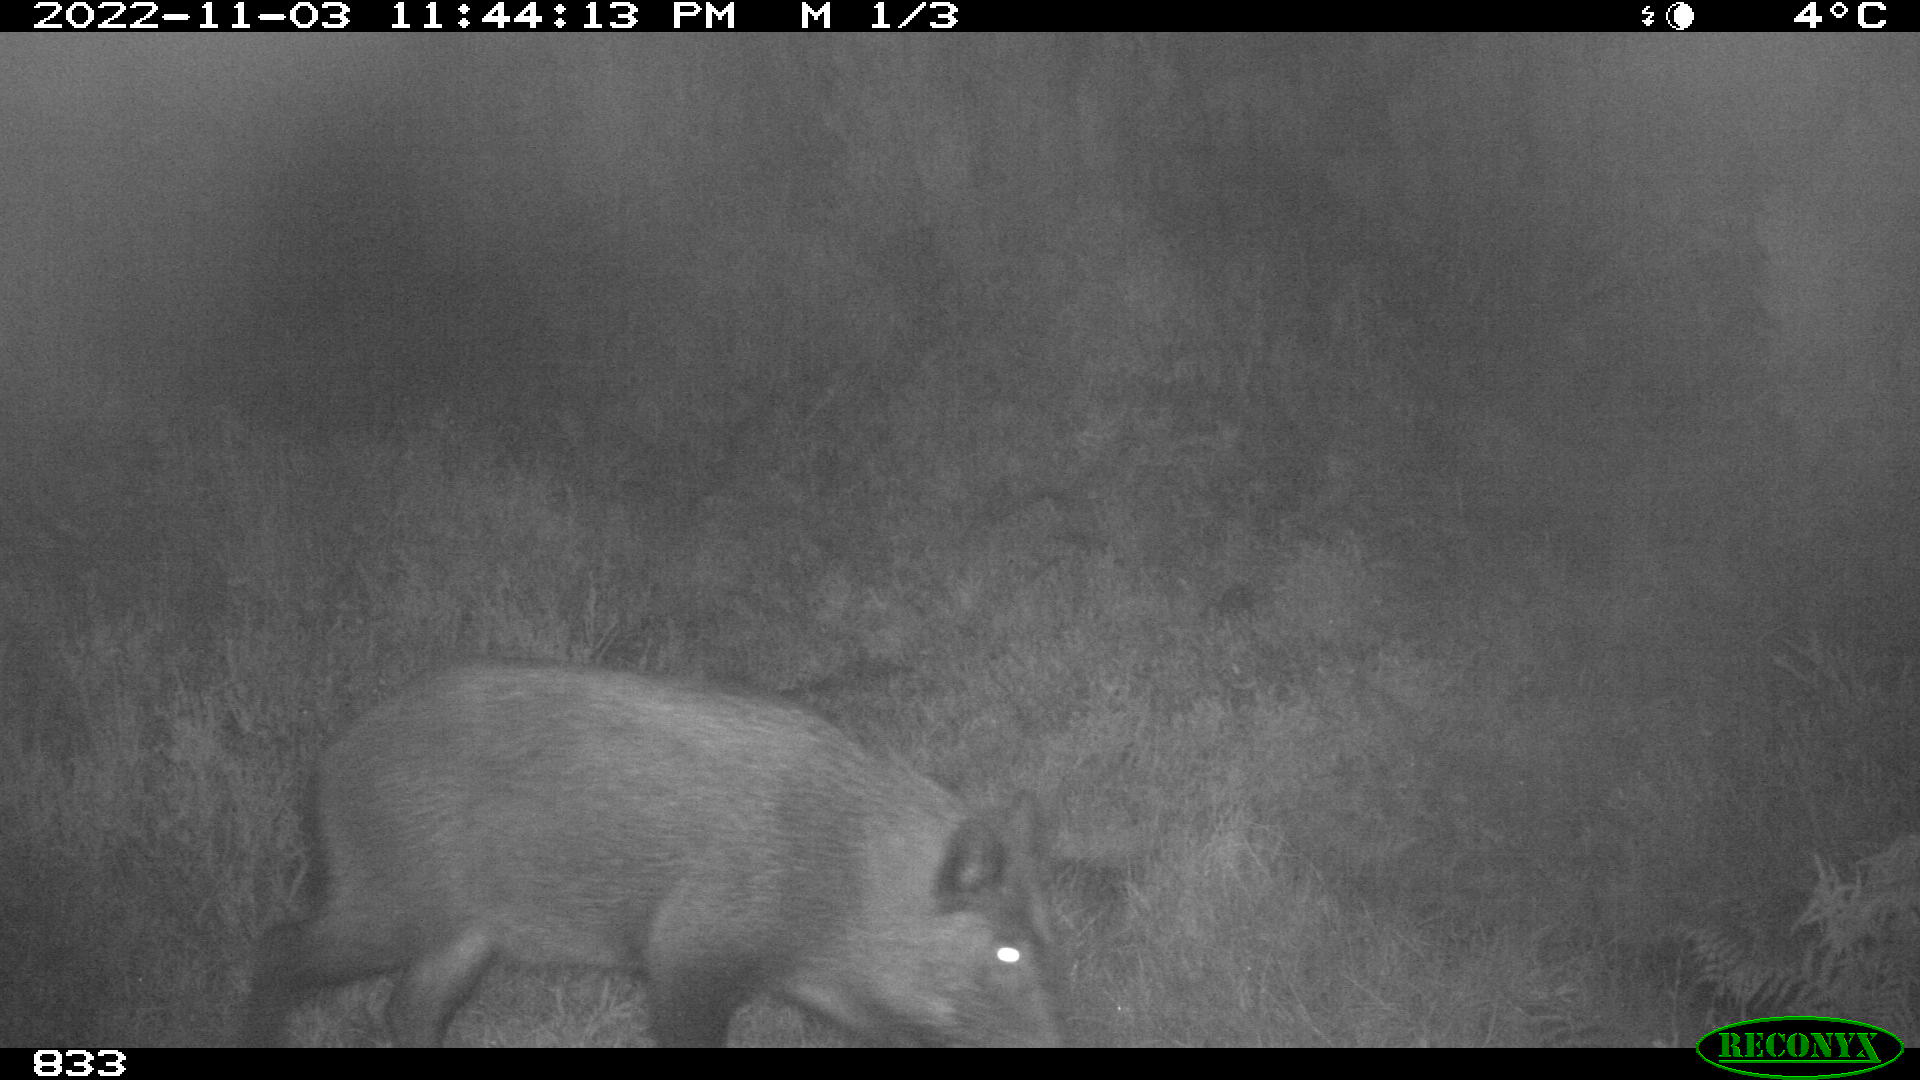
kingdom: Animalia
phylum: Chordata
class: Mammalia
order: Artiodactyla
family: Suidae
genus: Sus
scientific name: Sus scrofa
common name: Wild boar
